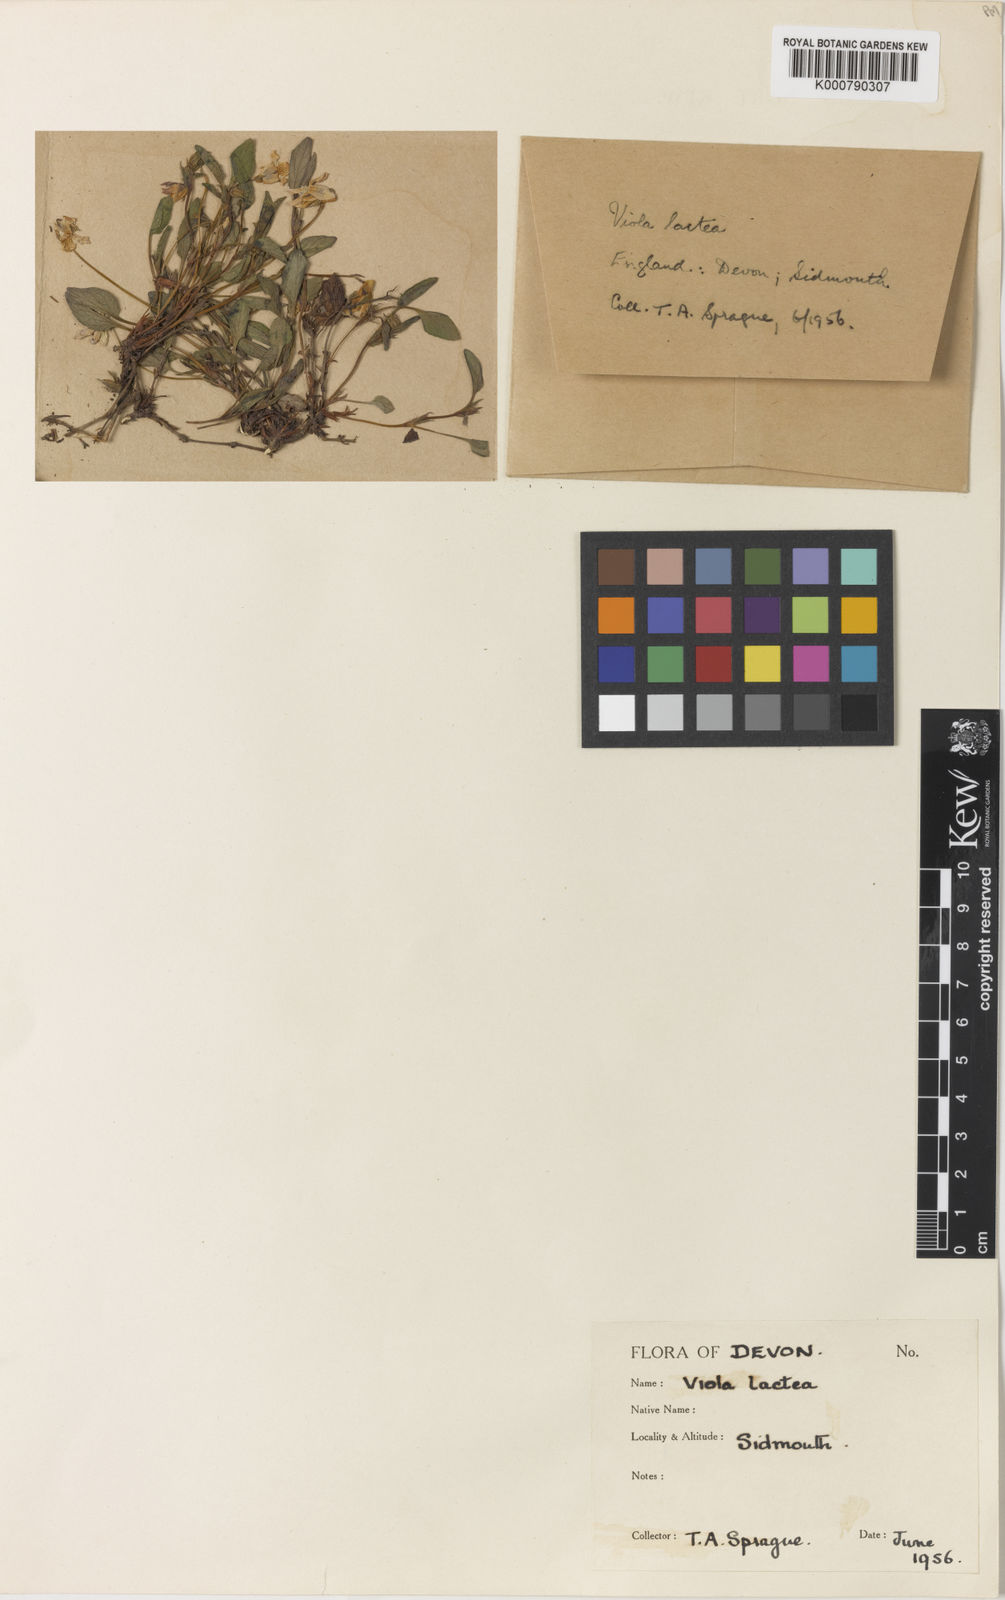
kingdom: Plantae
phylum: Tracheophyta
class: Magnoliopsida
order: Malpighiales
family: Violaceae
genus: Viola
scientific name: Viola lactea
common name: Pale dog-violet
